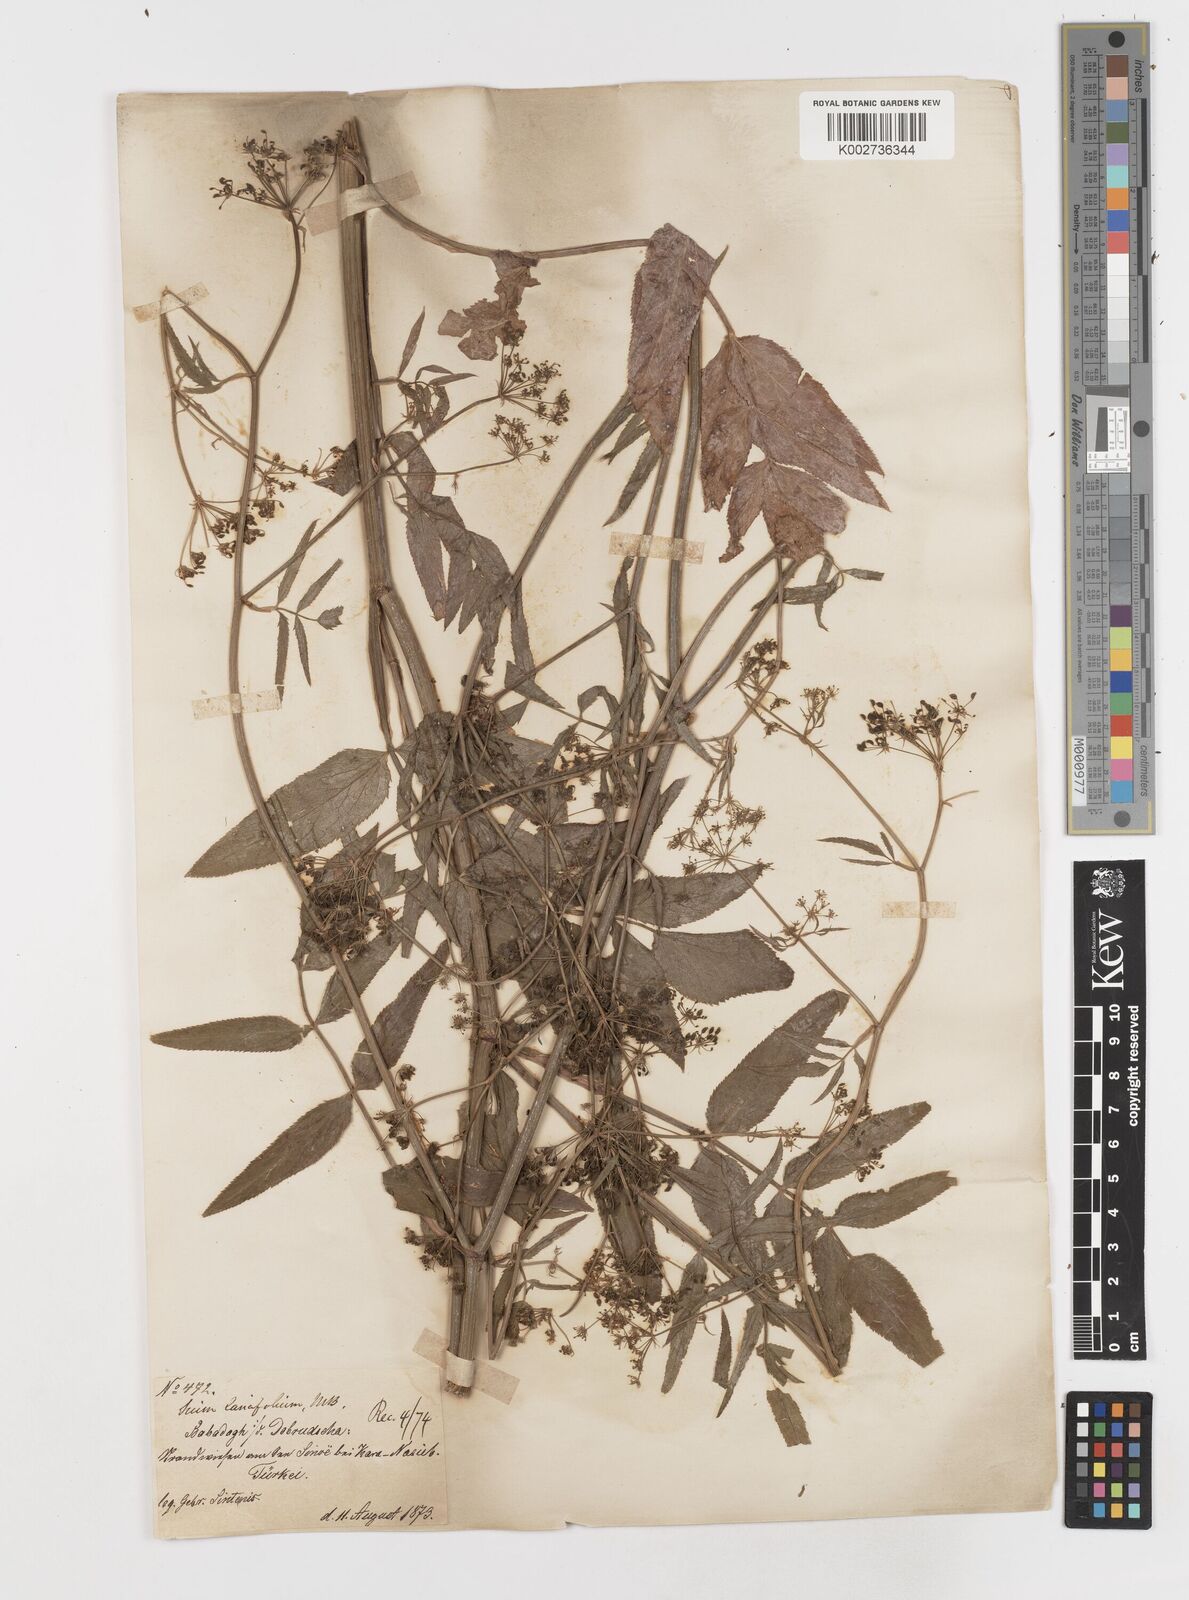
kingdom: Plantae
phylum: Tracheophyta
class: Magnoliopsida
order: Apiales
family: Apiaceae
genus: Sium
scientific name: Sium sisarum
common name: Skirret
